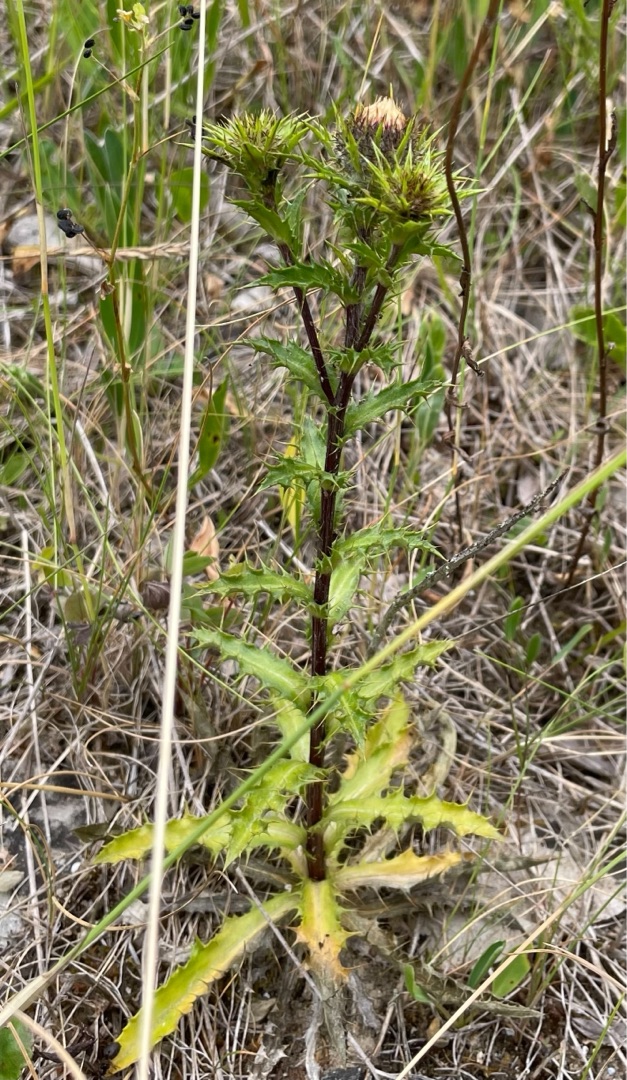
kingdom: Plantae
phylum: Tracheophyta
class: Magnoliopsida
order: Asterales
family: Asteraceae
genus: Carlina
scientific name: Carlina vulgaris
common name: Bakketidsel
